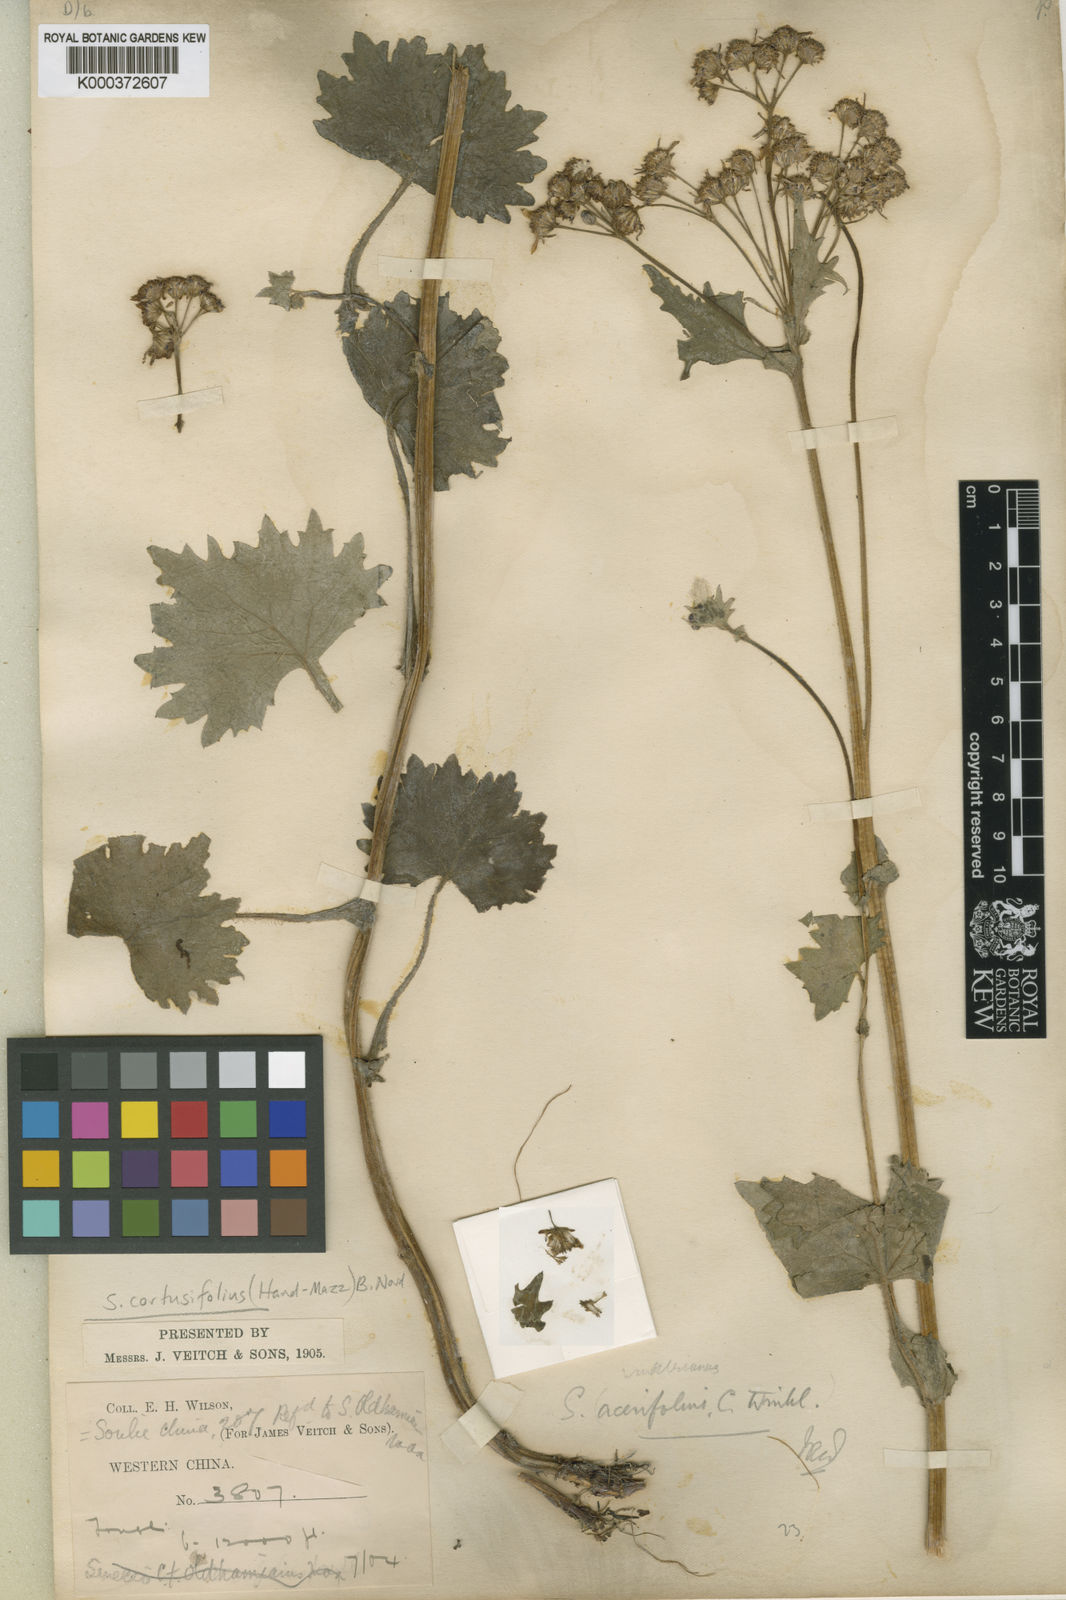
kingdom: Plantae
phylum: Tracheophyta
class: Magnoliopsida
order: Asterales
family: Asteraceae
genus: Sinosenecio
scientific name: Sinosenecio euosmus
